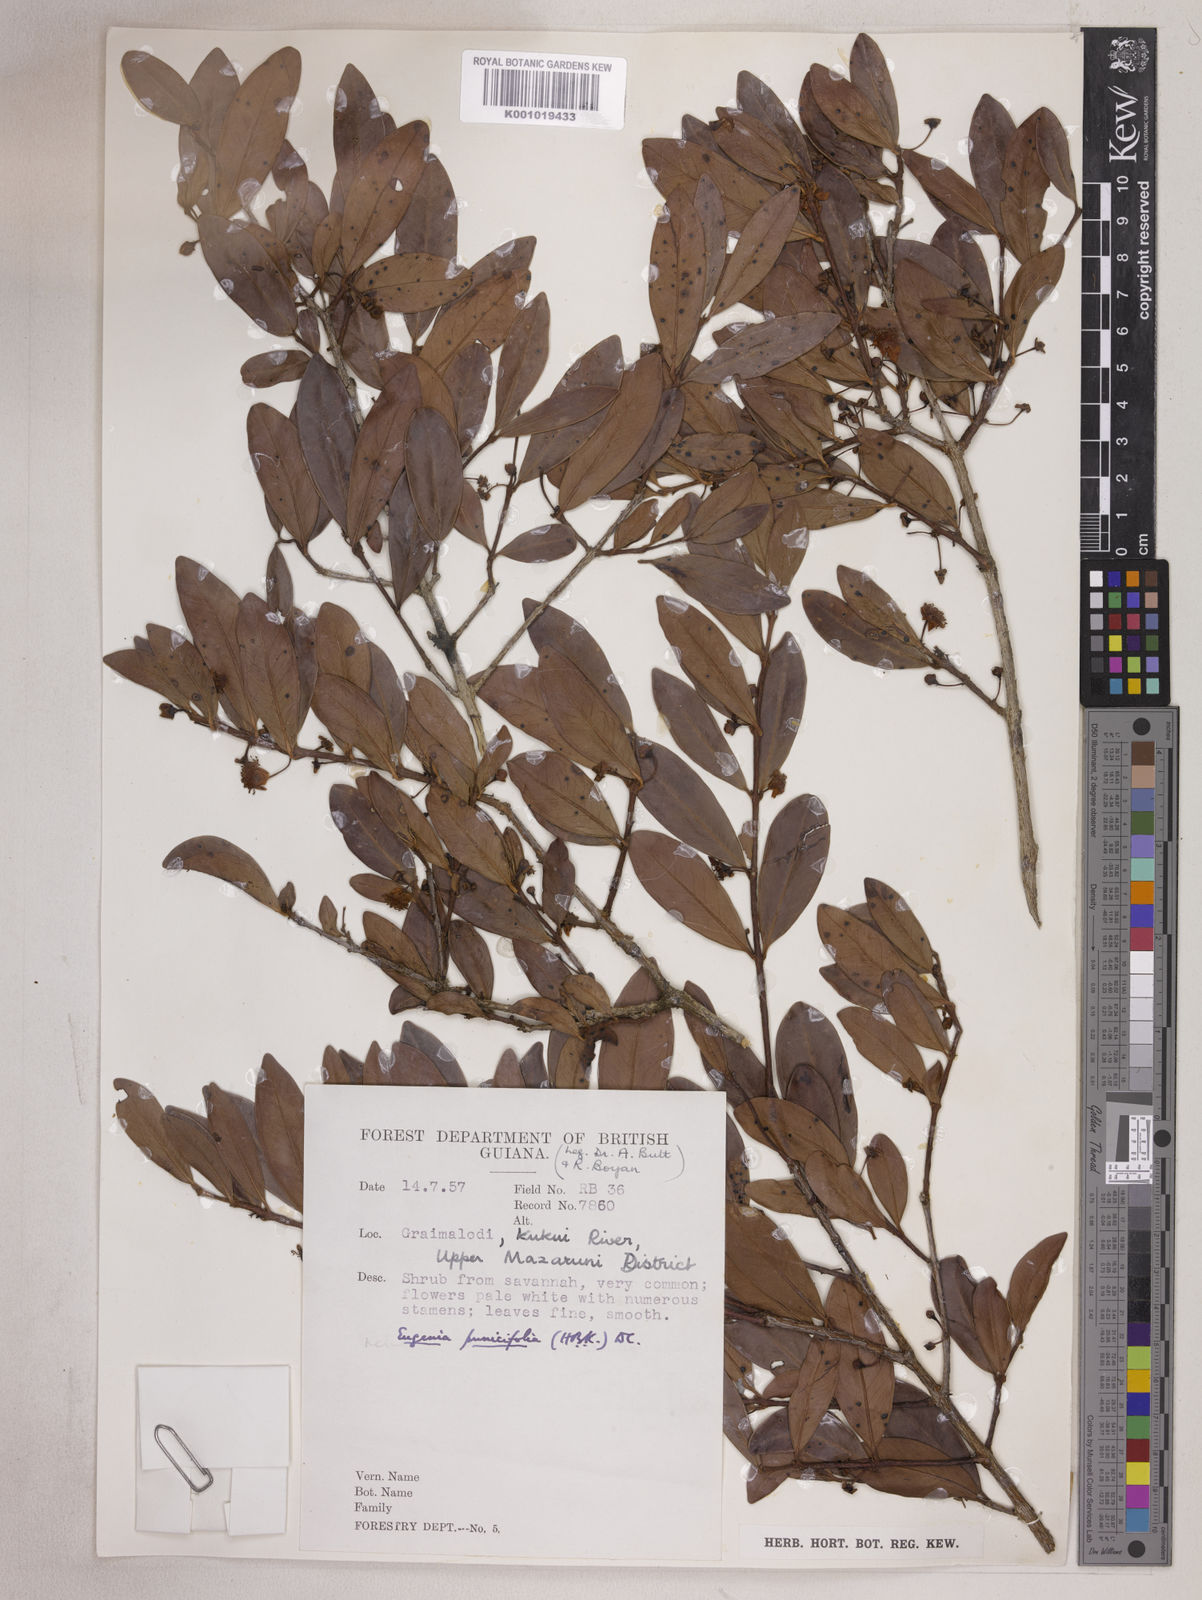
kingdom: Plantae
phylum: Tracheophyta
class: Magnoliopsida
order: Myrtales
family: Myrtaceae
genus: Eugenia
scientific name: Eugenia punicifolia
